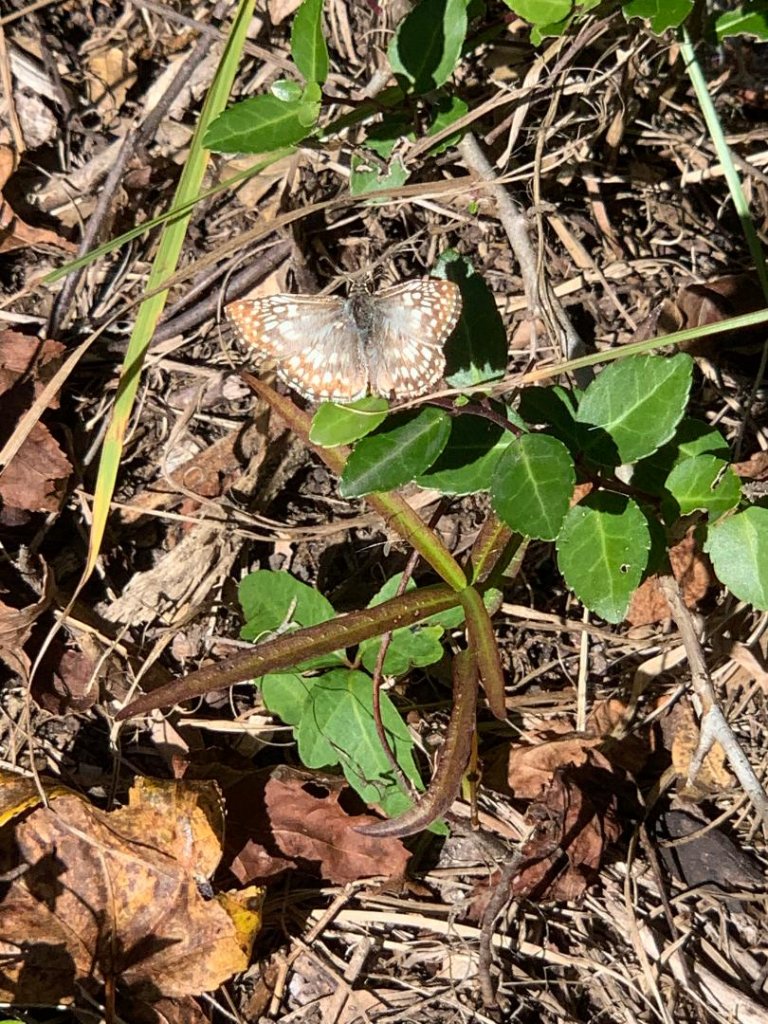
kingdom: Animalia
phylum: Arthropoda
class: Insecta
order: Lepidoptera
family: Hesperiidae
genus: Pyrgus
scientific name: Pyrgus oileus
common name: Tropical Checkered-Skipper
